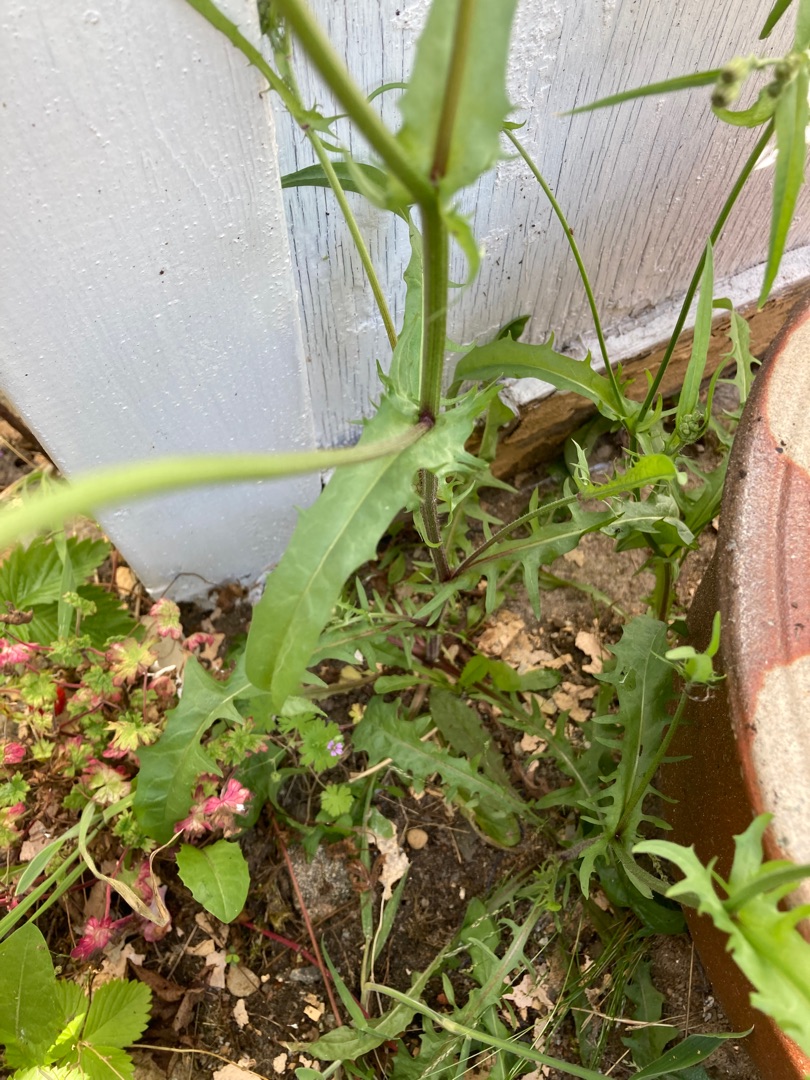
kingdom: Plantae
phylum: Tracheophyta
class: Magnoliopsida
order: Asterales
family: Asteraceae
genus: Crepis
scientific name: Crepis capillaris
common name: Grøn høgeskæg
